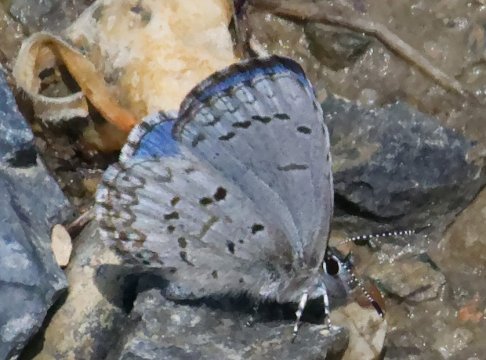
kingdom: Animalia
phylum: Arthropoda
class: Insecta
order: Lepidoptera
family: Lycaenidae
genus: Celastrina
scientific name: Celastrina lucia
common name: Northern Spring Azure
